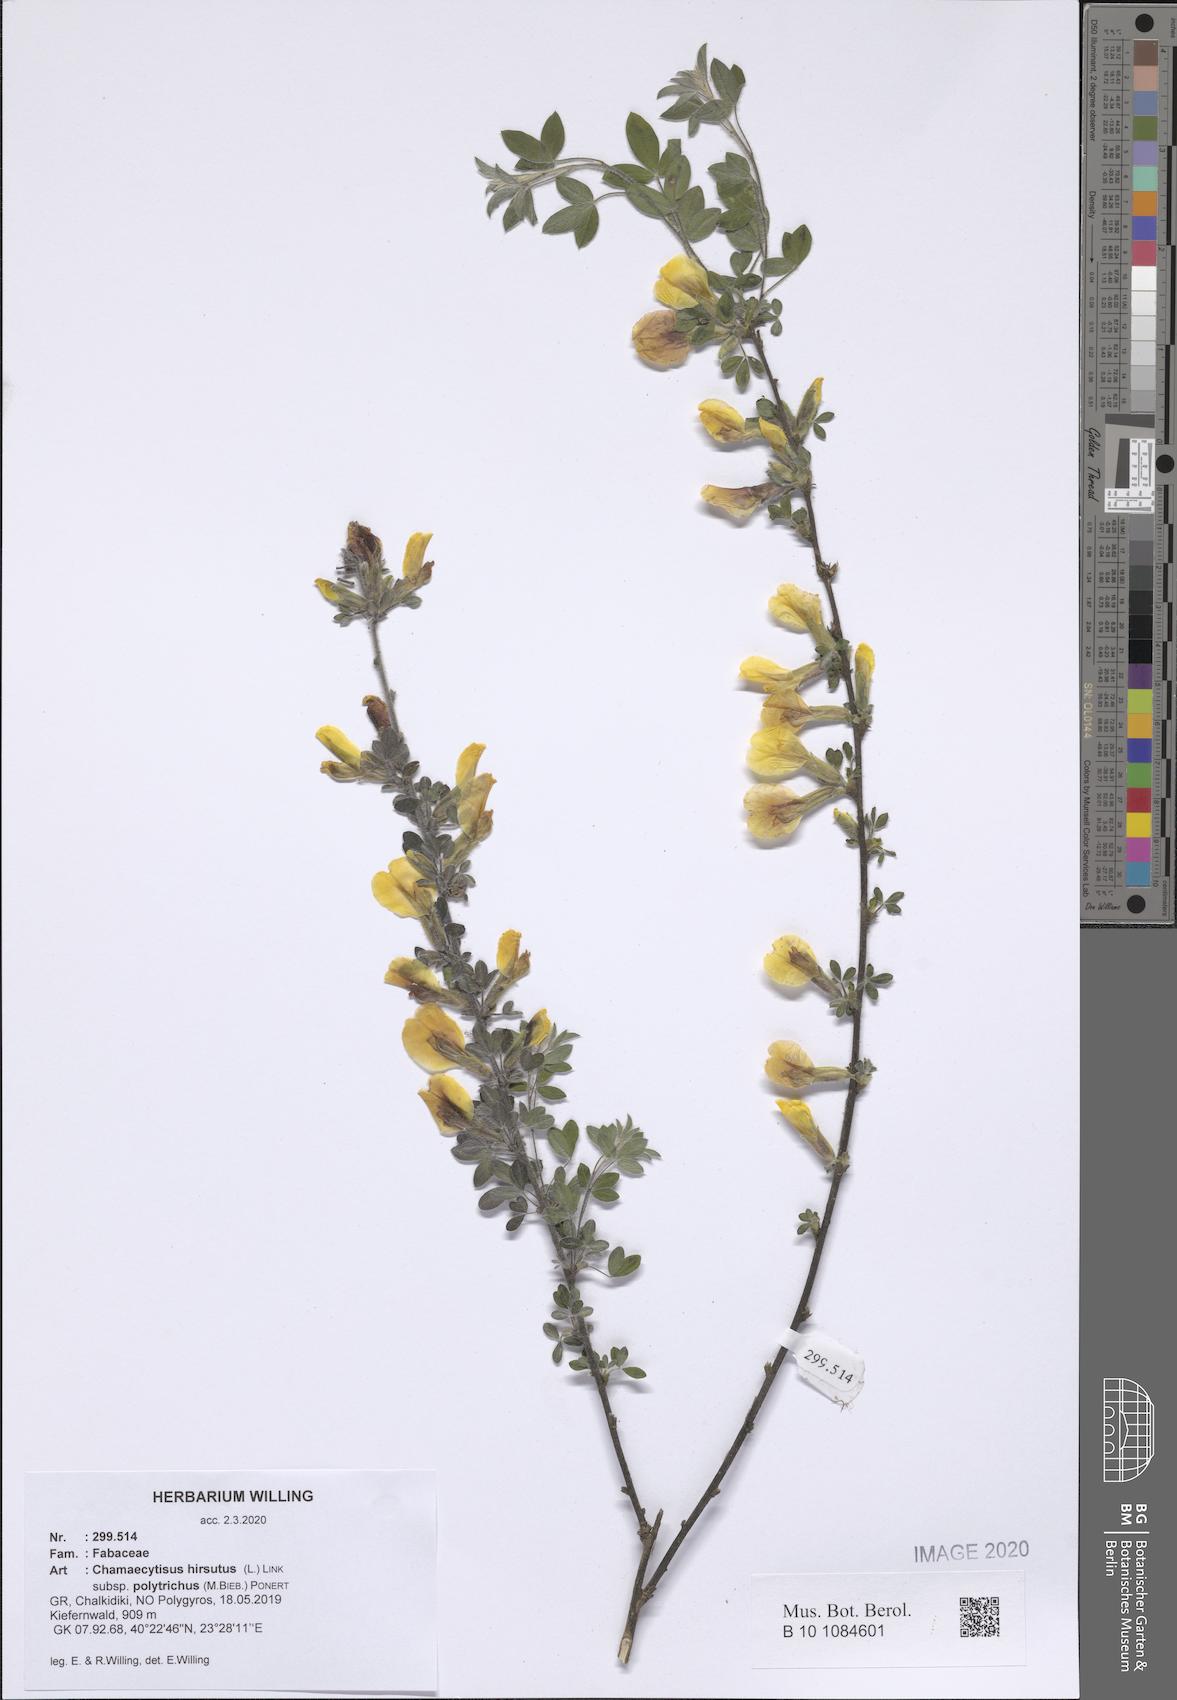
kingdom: Plantae
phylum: Tracheophyta
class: Magnoliopsida
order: Fabales
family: Fabaceae
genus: Chamaecytisus
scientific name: Chamaecytisus hirsutus
